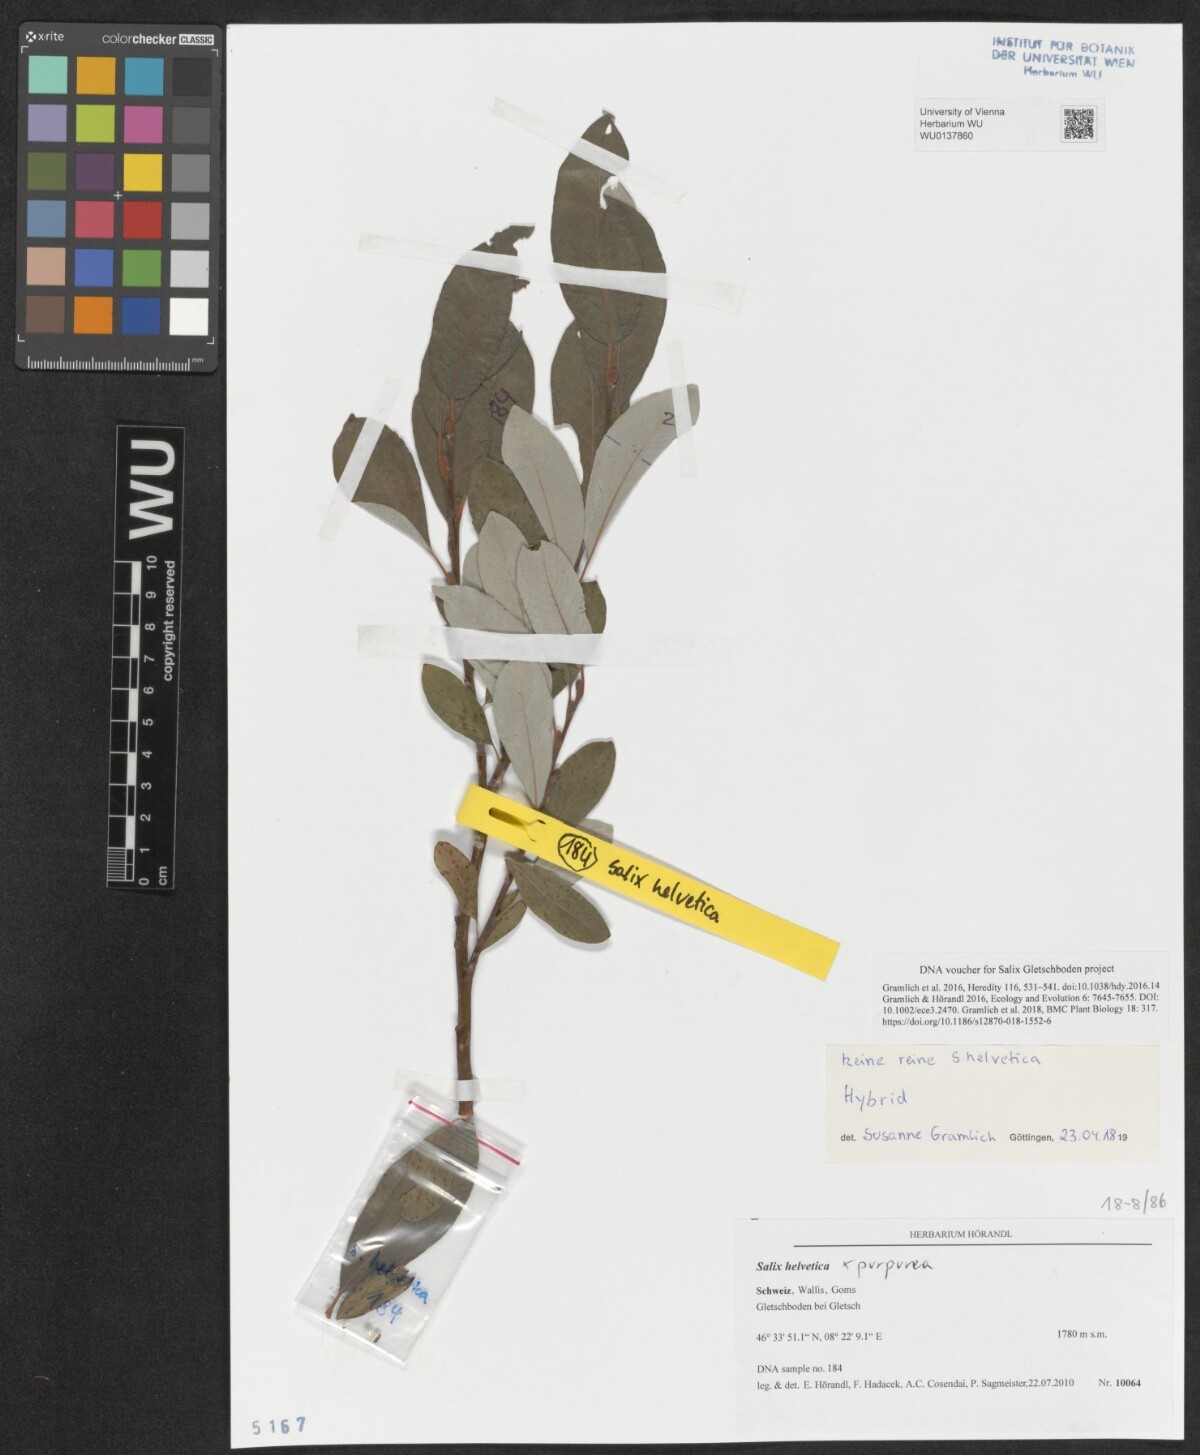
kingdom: Plantae
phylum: Tracheophyta
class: Magnoliopsida
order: Malpighiales
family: Salicaceae
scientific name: Salicaceae
